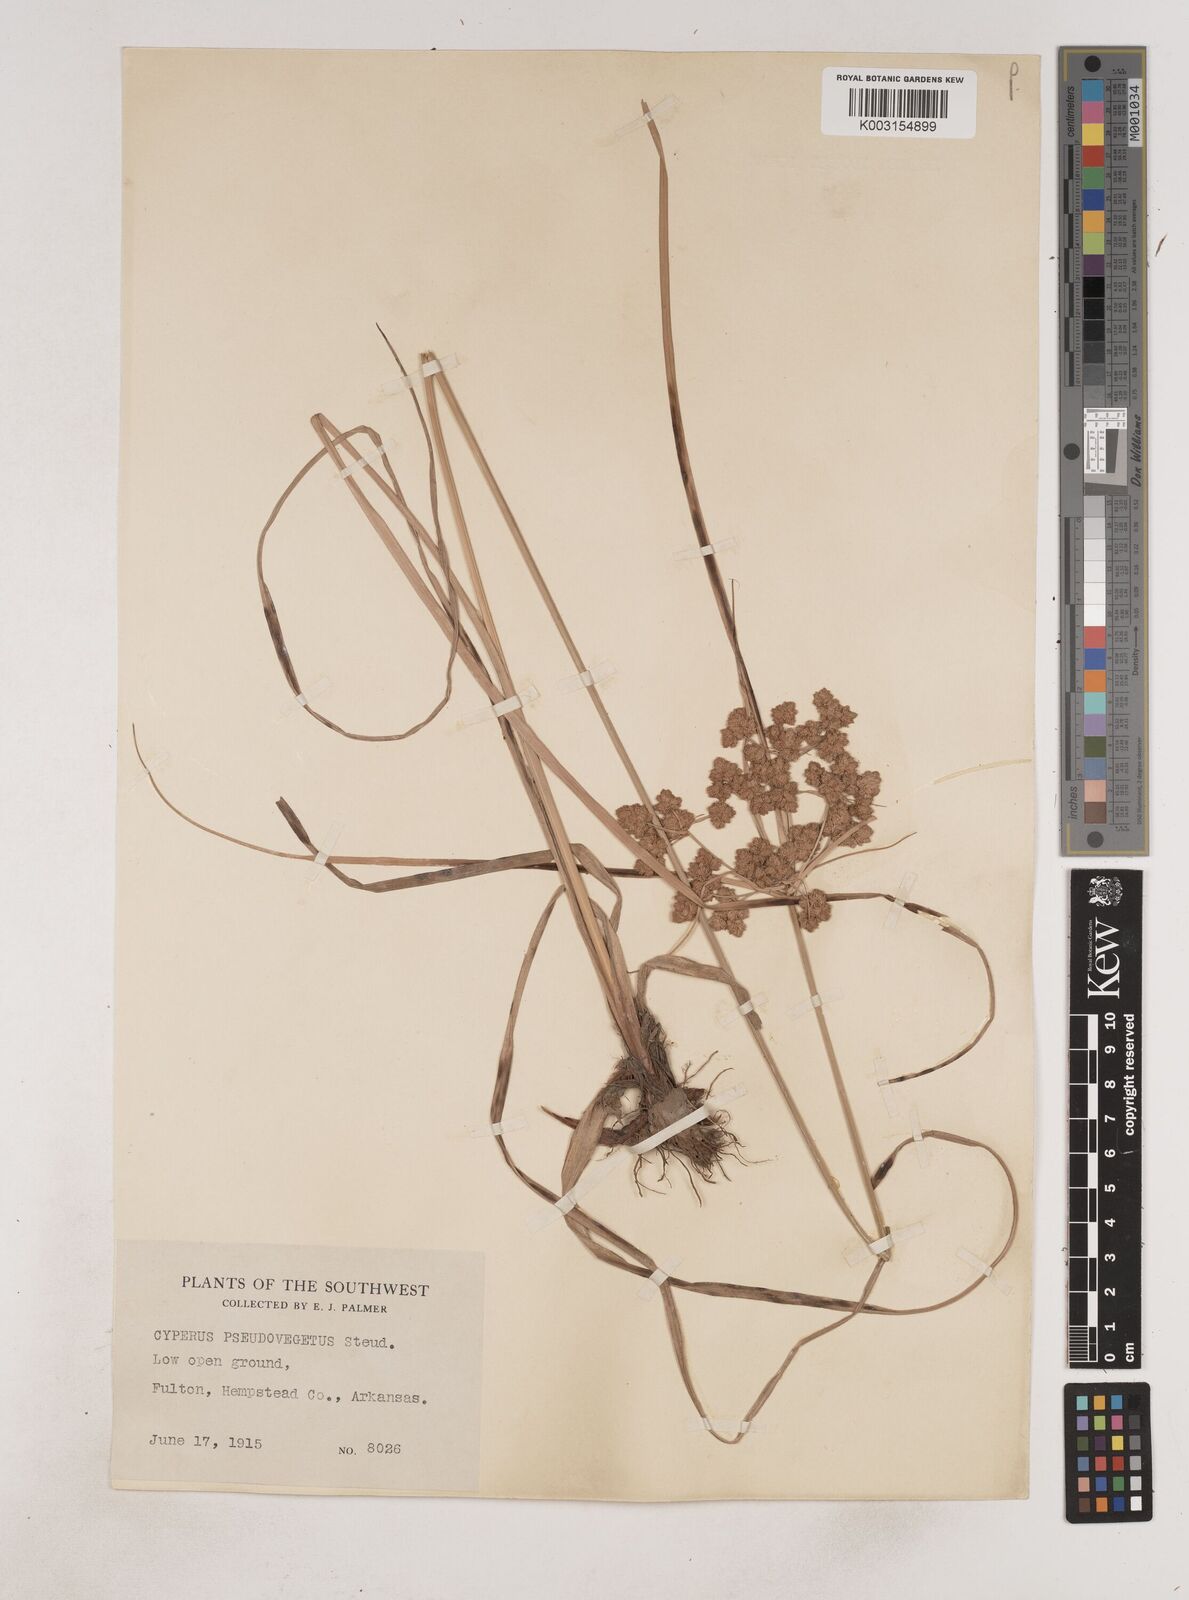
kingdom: Plantae
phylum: Tracheophyta
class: Liliopsida
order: Poales
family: Cyperaceae
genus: Cyperus
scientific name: Cyperus pseudovegetus
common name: Marsh flat sedge
